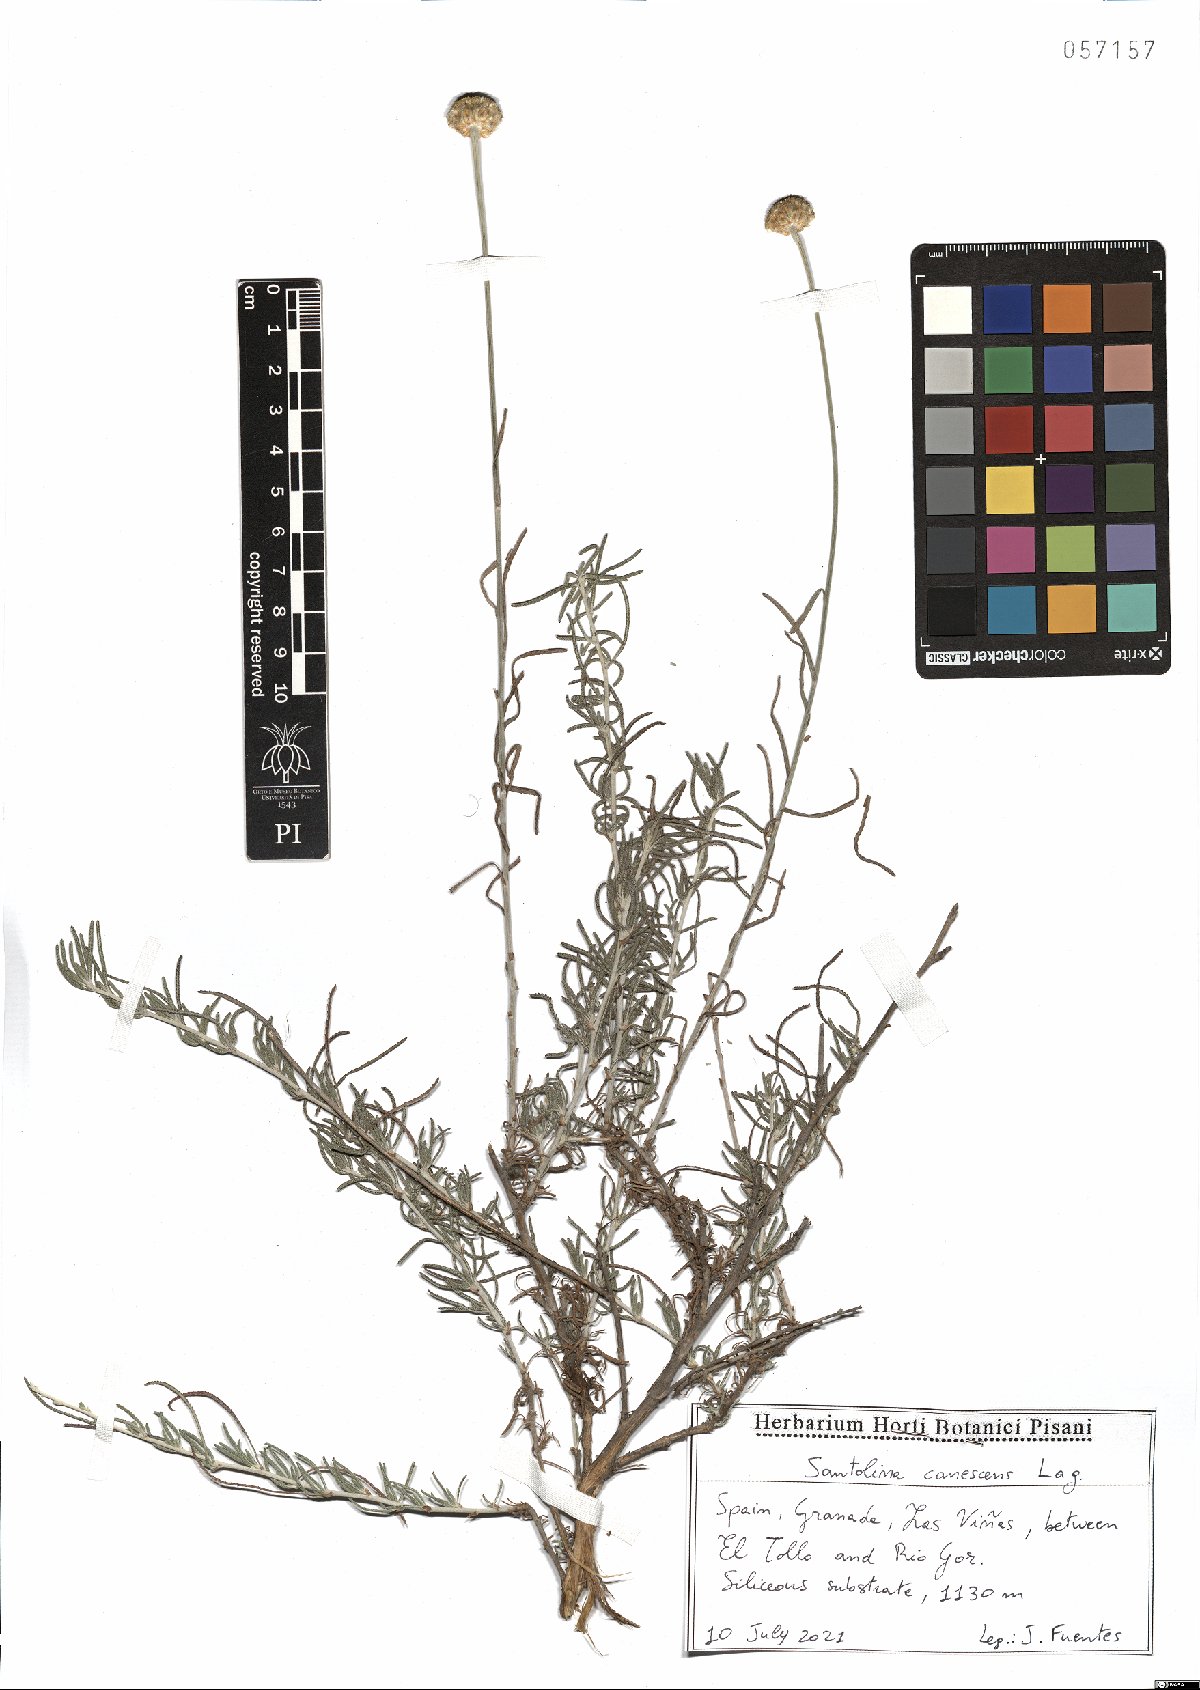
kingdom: Plantae
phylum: Tracheophyta
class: Magnoliopsida
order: Asterales
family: Asteraceae
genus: Santolina
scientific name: Santolina canescens
